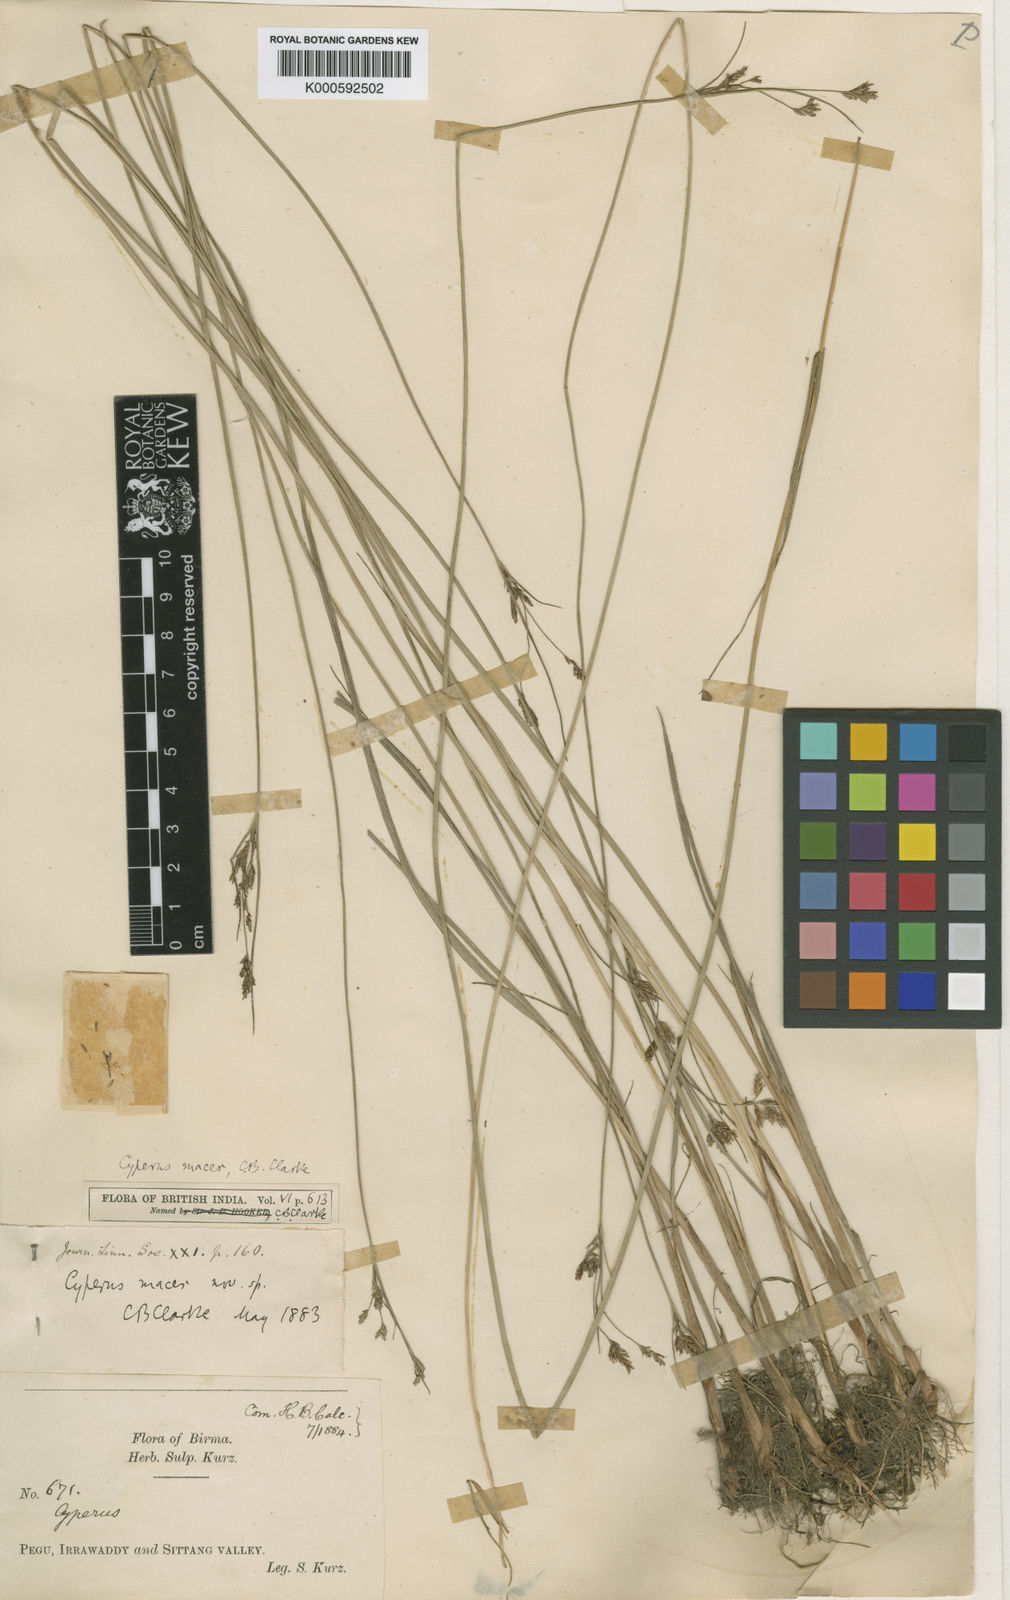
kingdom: Plantae
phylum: Tracheophyta
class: Liliopsida
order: Poales
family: Cyperaceae
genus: Cyperus
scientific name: Cyperus macer
